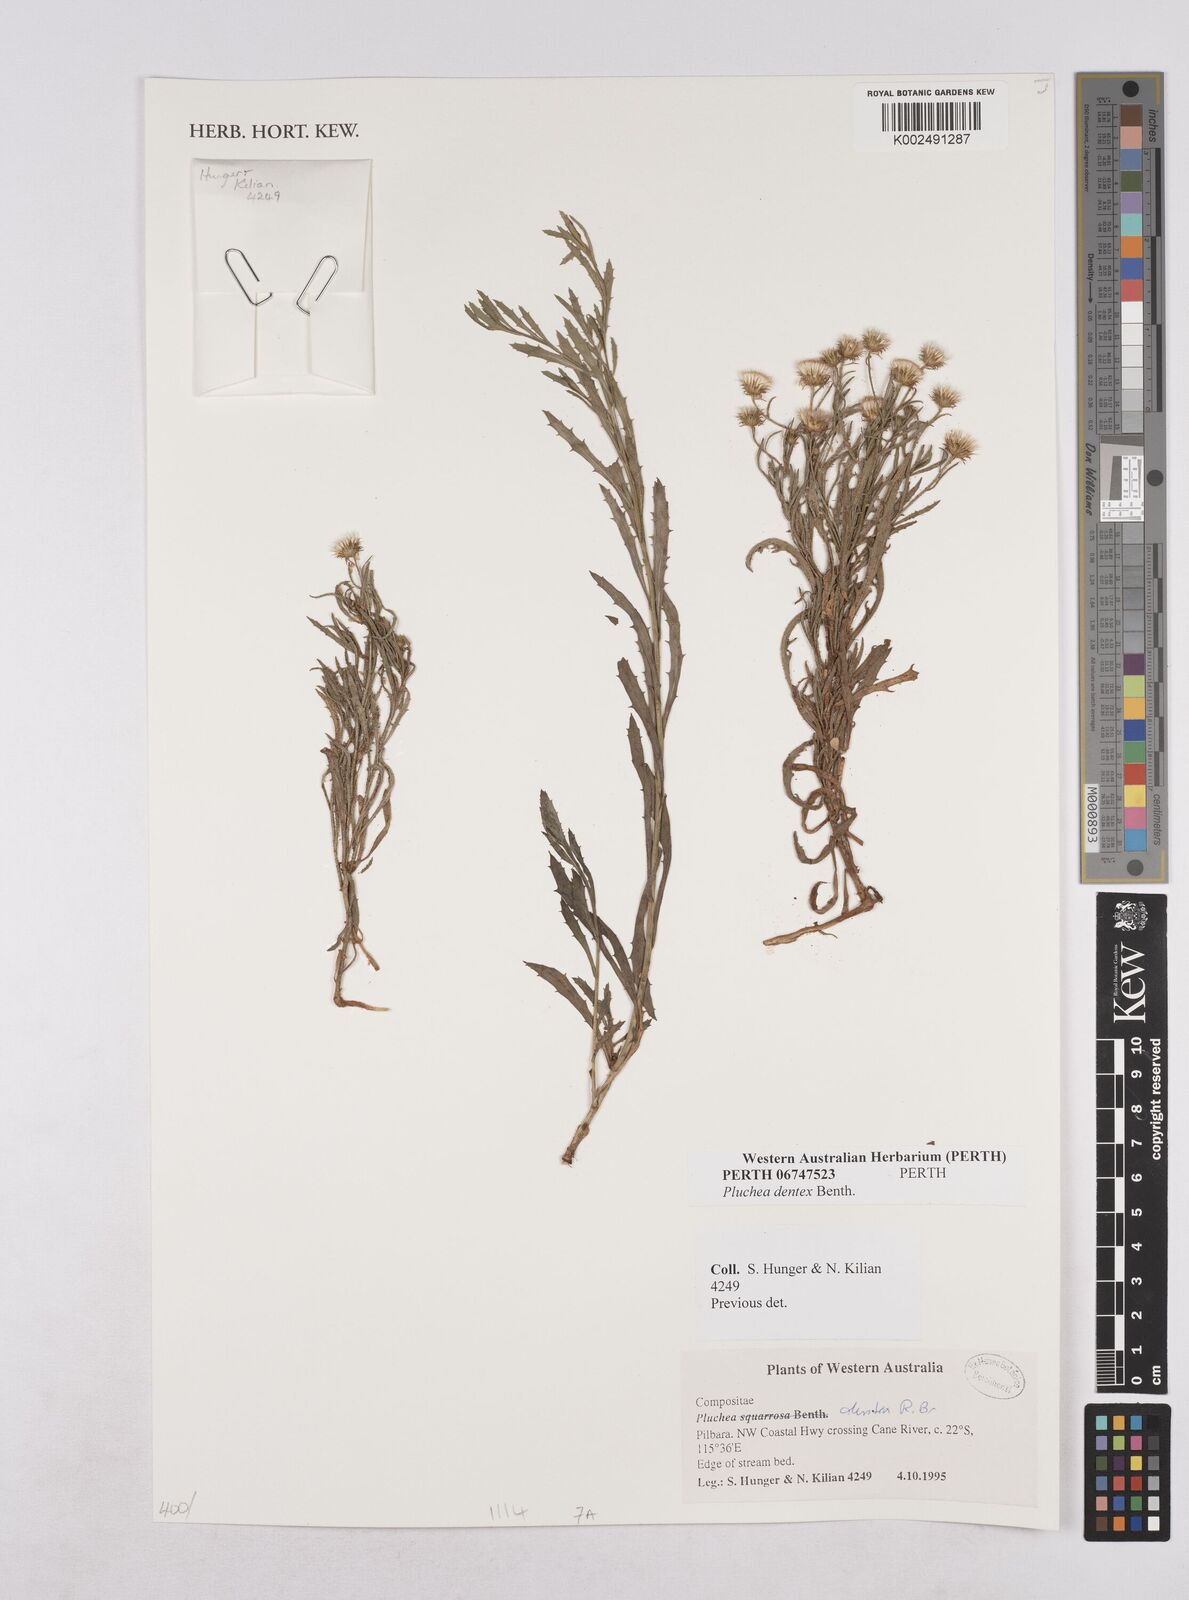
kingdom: Plantae
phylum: Tracheophyta
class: Magnoliopsida
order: Asterales
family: Asteraceae
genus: Pluchea
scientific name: Pluchea dentex
